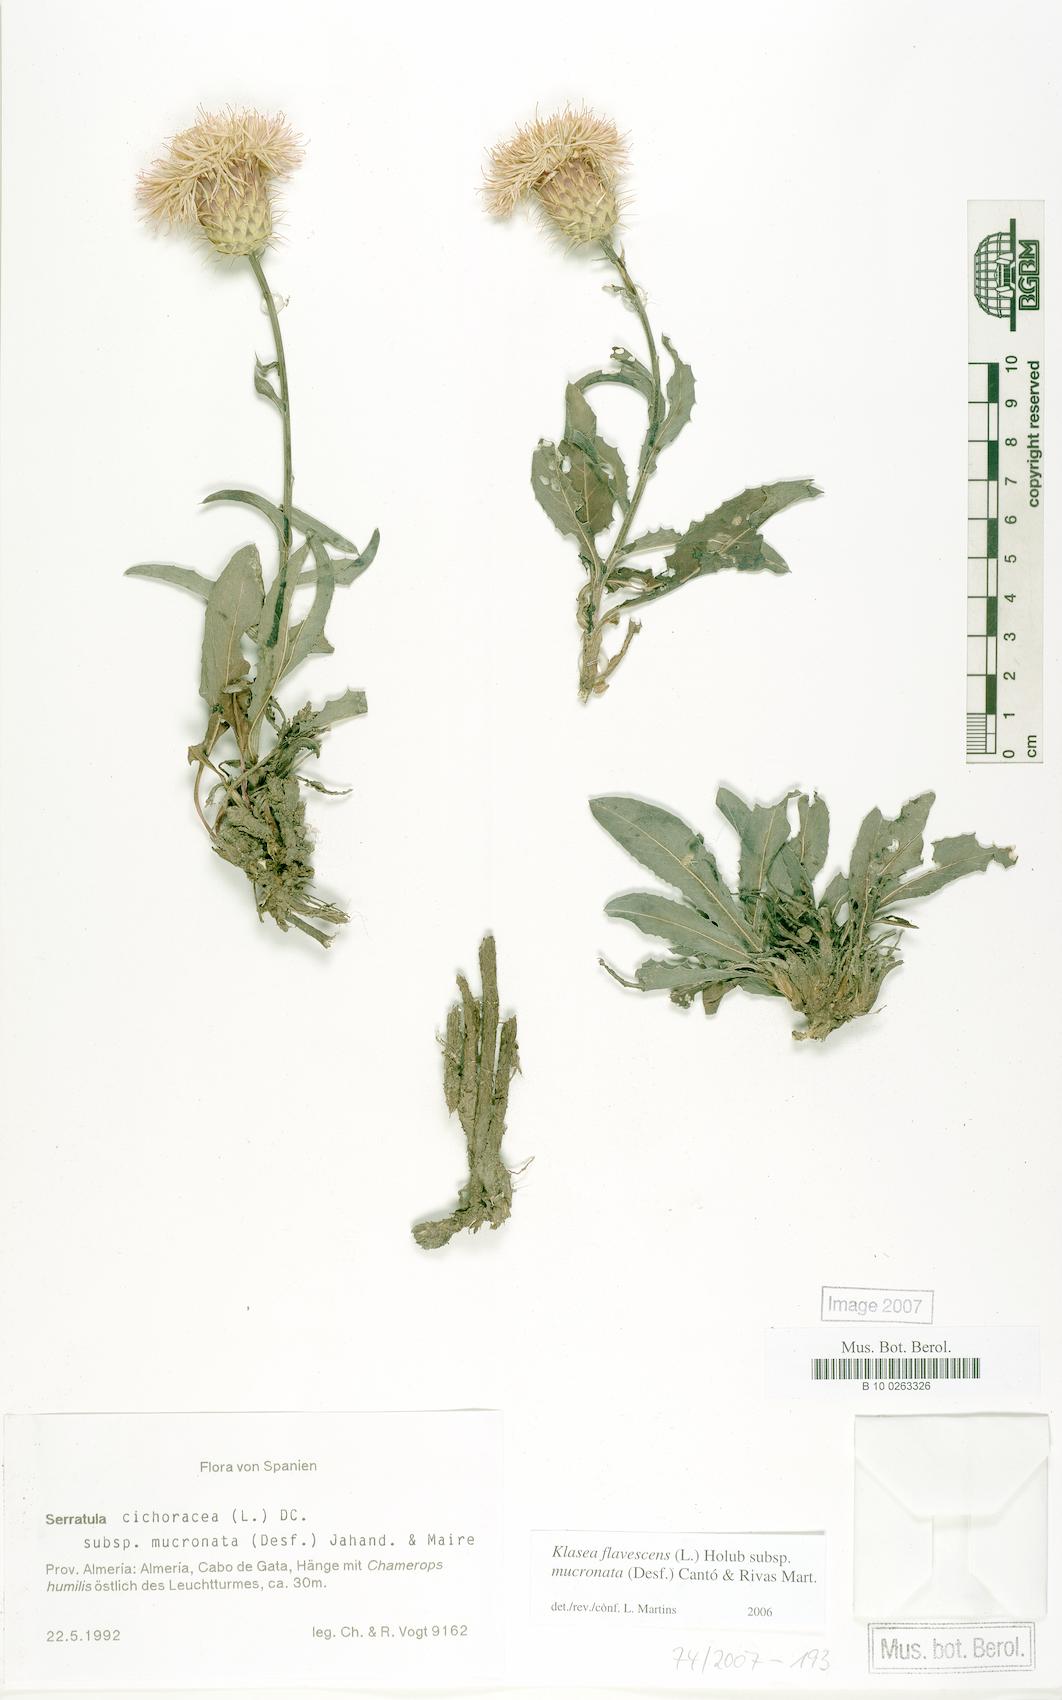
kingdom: Plantae
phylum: Tracheophyta
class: Magnoliopsida
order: Asterales
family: Asteraceae
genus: Klasea
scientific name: Klasea flavescens
